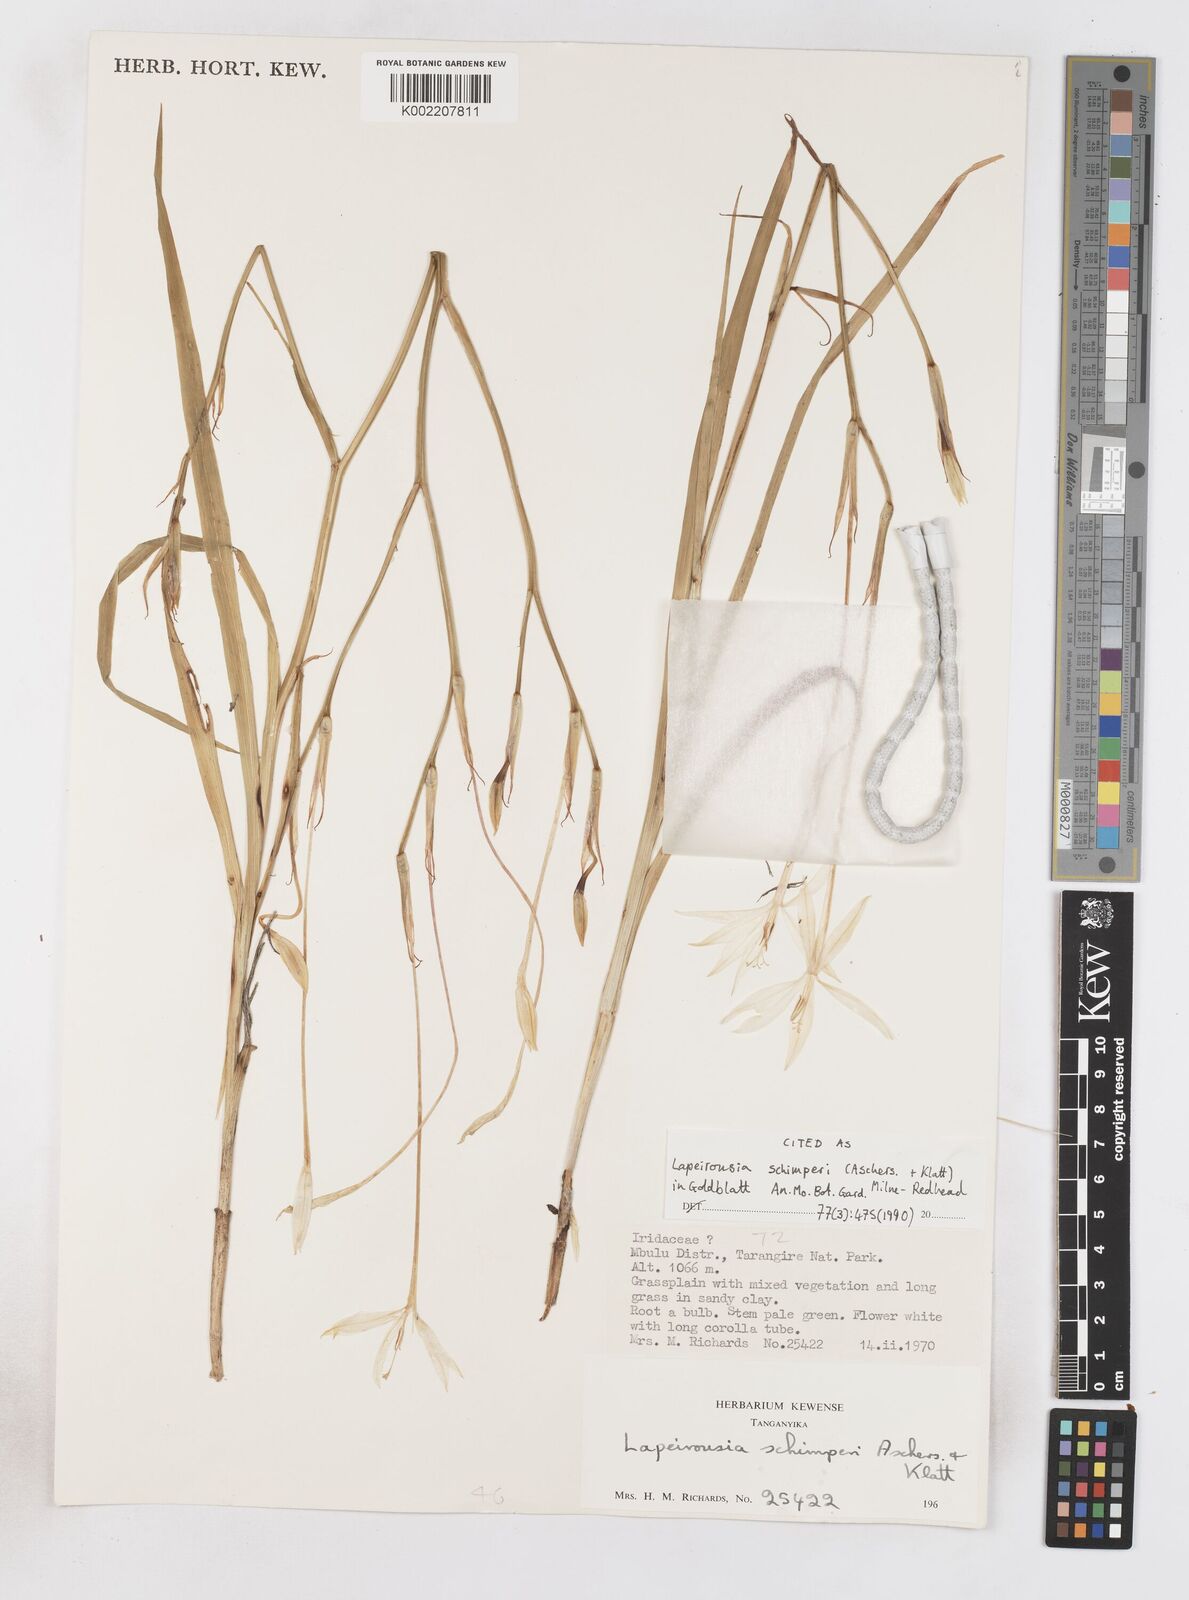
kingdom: Plantae
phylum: Tracheophyta
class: Liliopsida
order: Asparagales
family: Iridaceae
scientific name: Iridaceae
